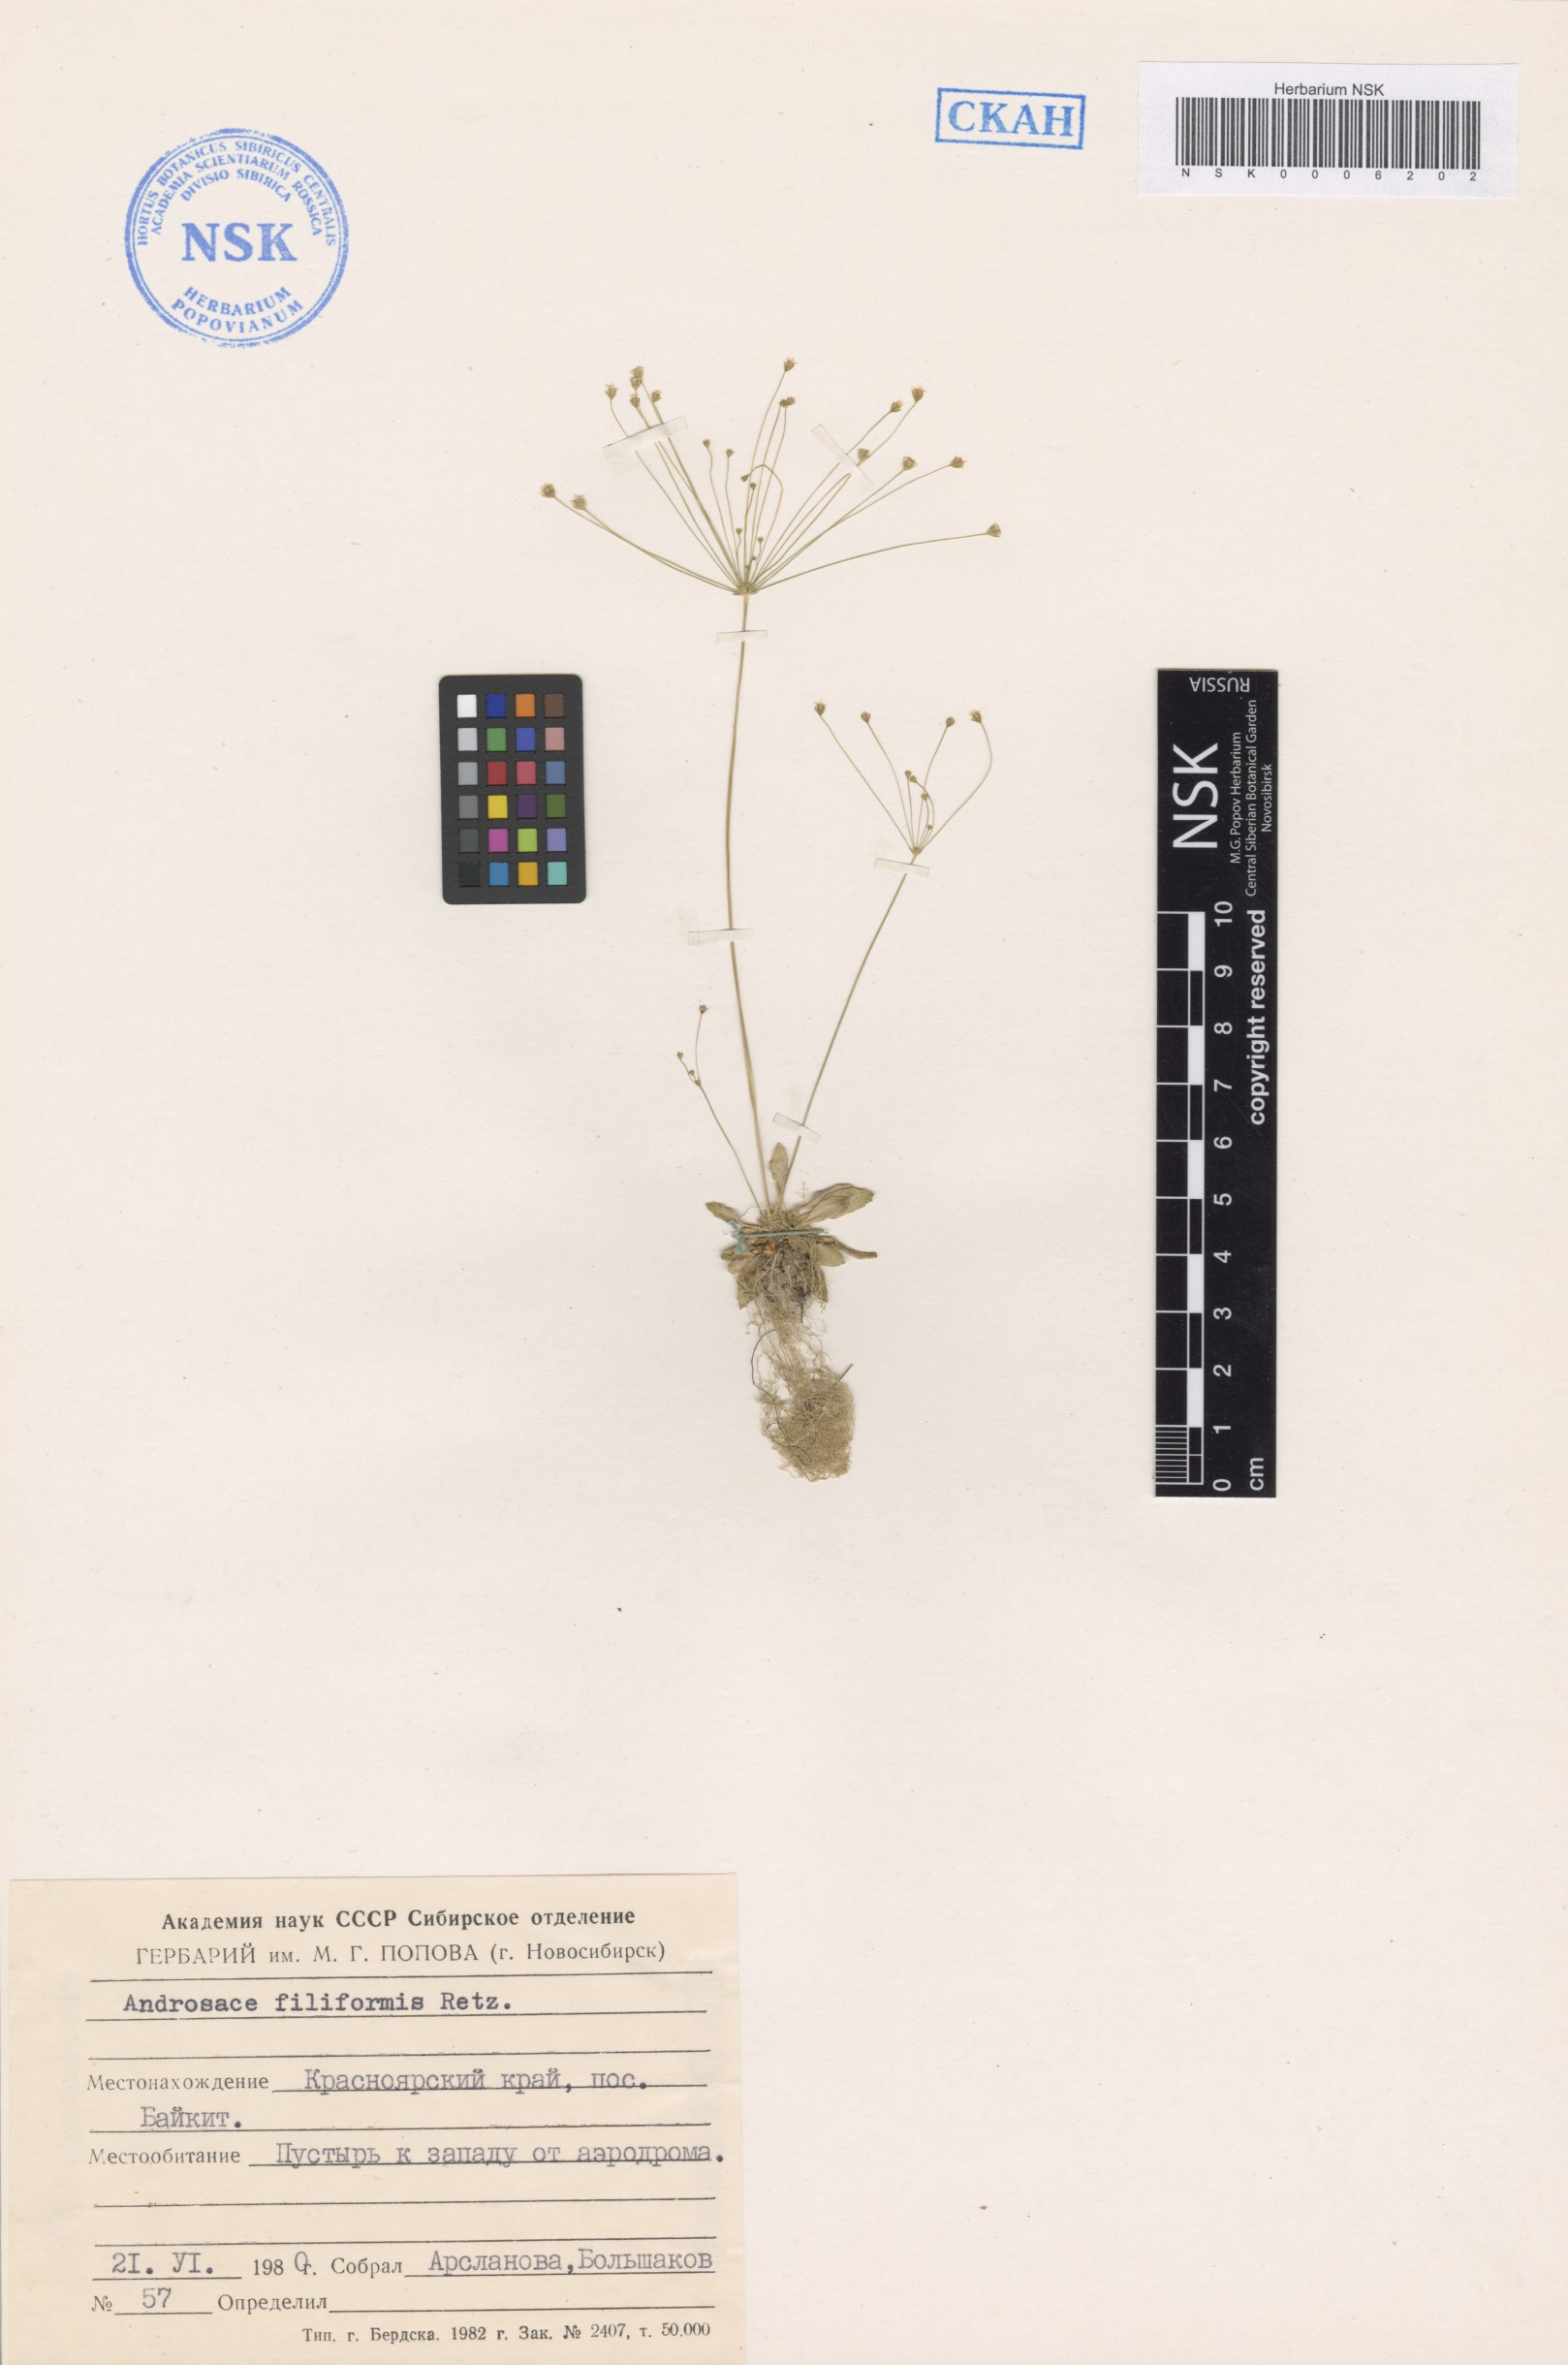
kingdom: Plantae
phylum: Tracheophyta
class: Magnoliopsida
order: Ericales
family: Primulaceae
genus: Androsace
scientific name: Androsace filiformis
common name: Filiform rock jasmine
